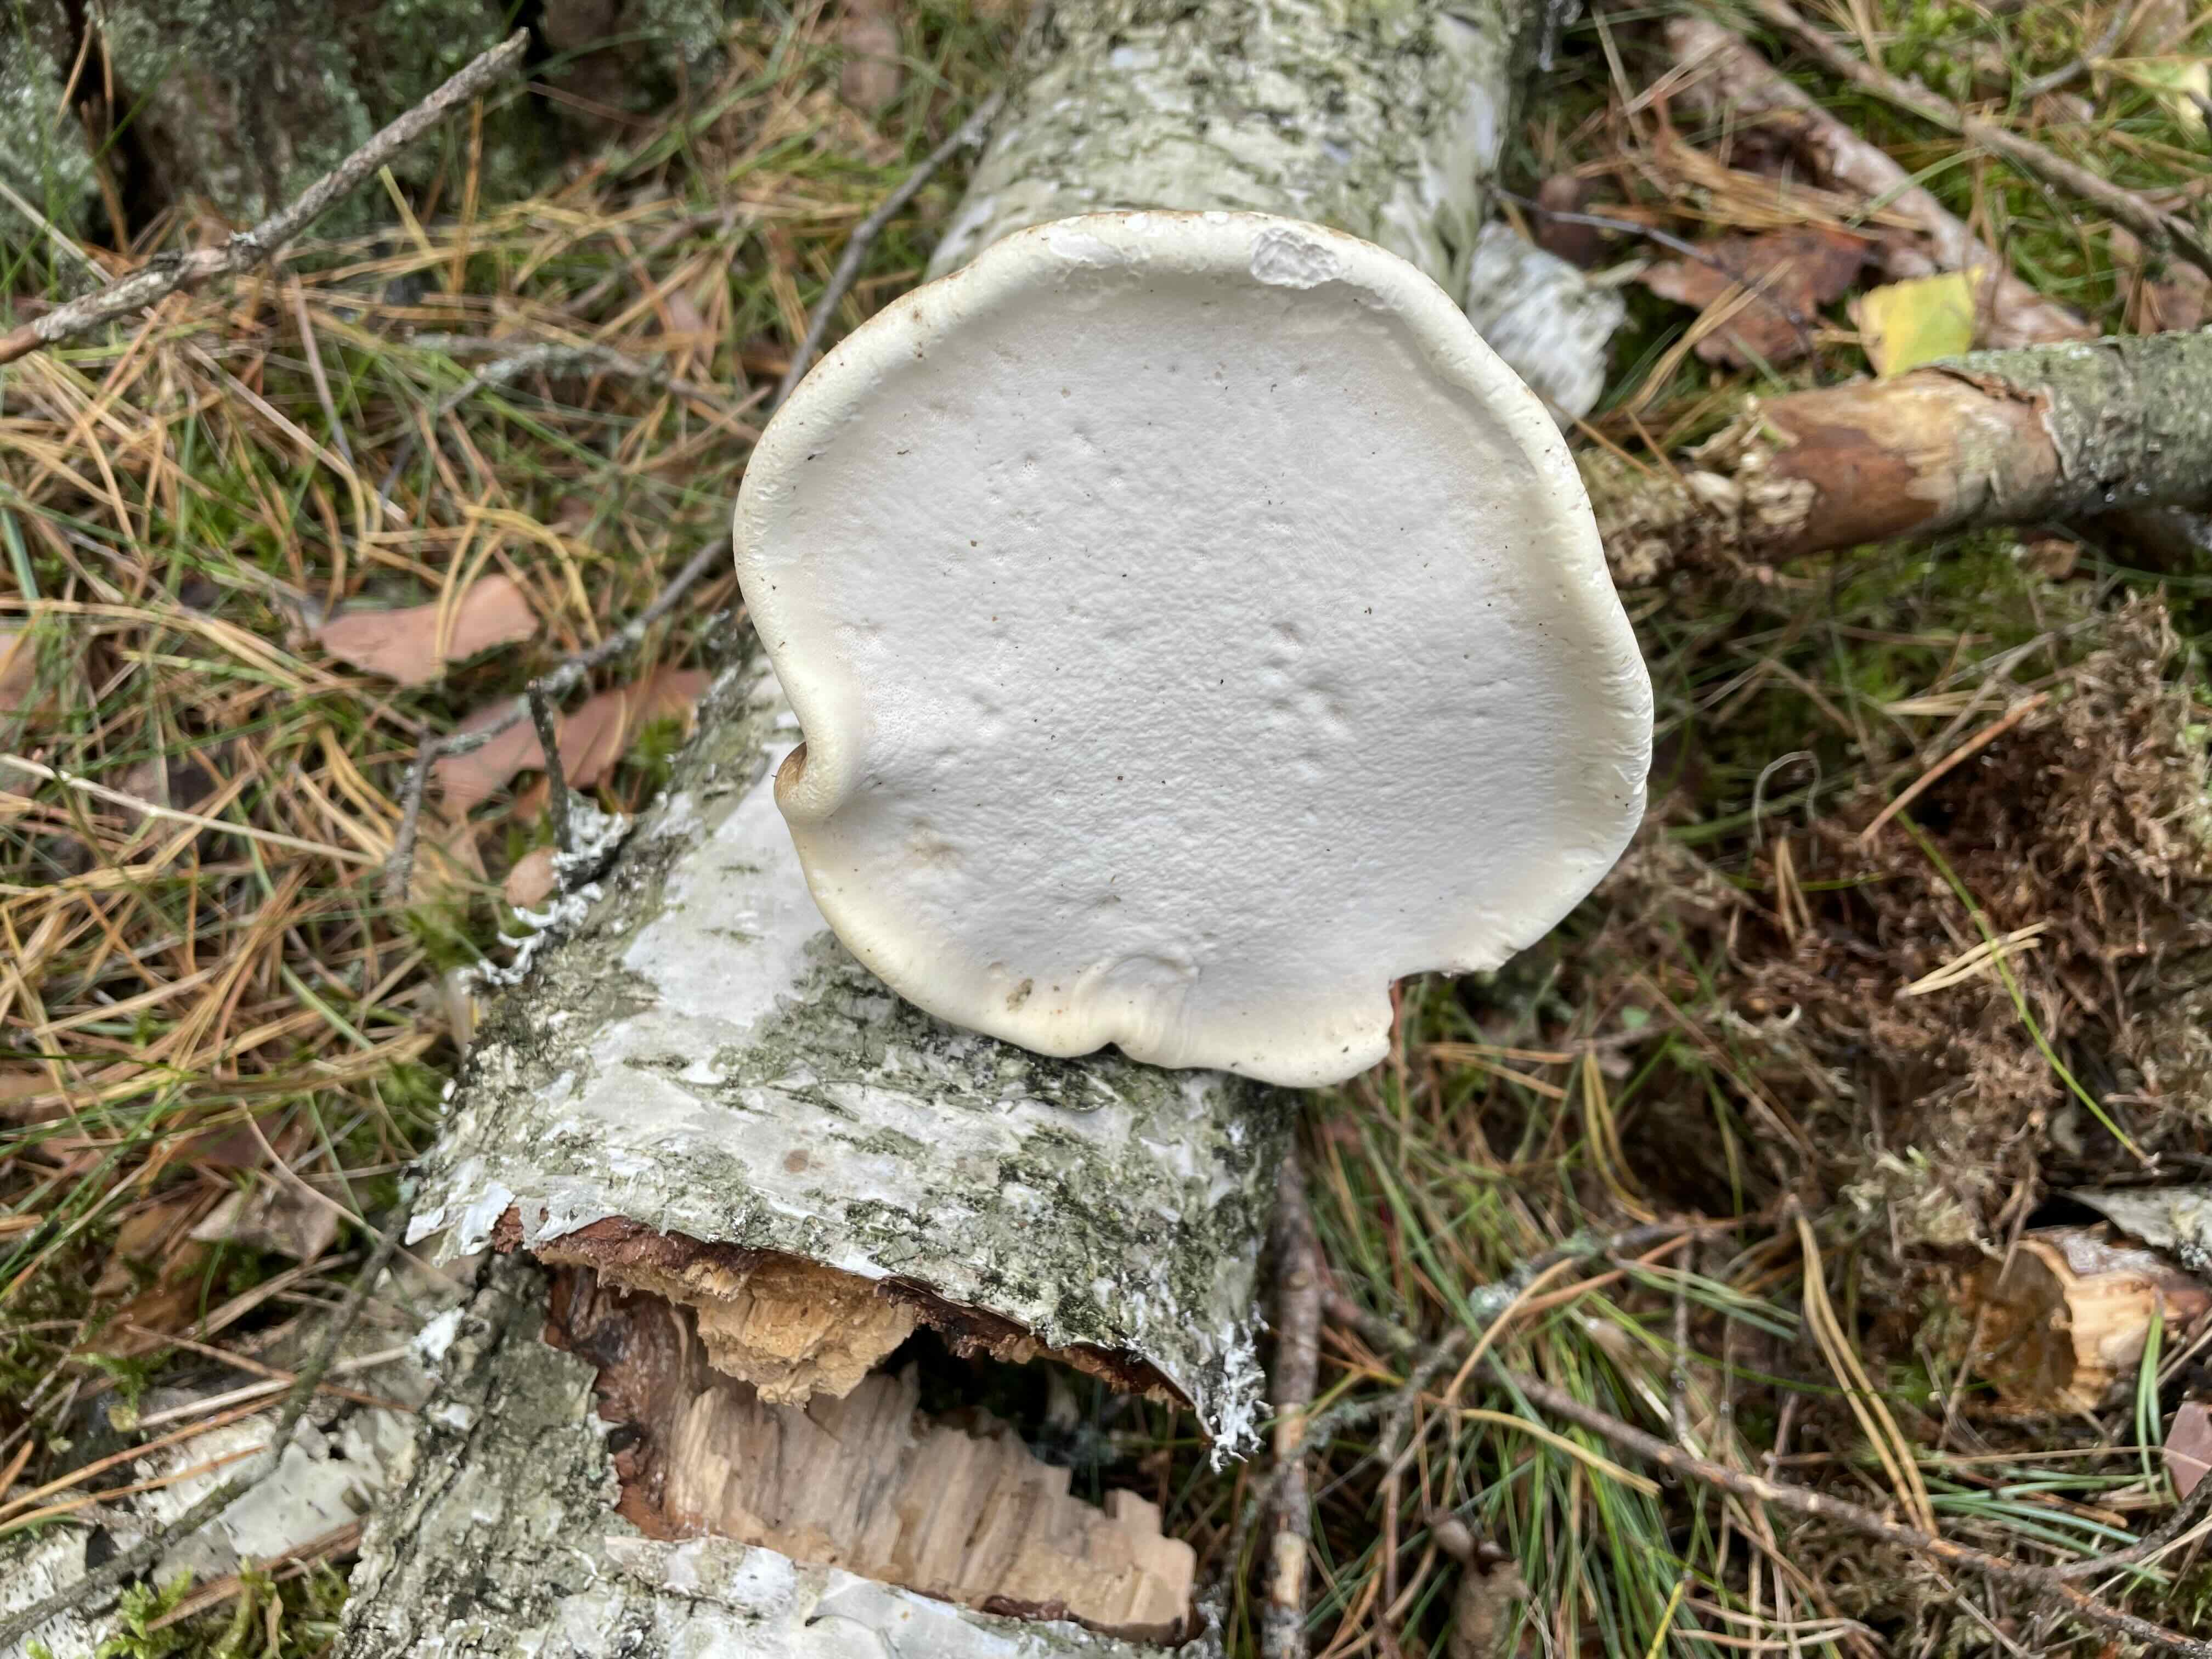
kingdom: Fungi
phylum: Basidiomycota
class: Agaricomycetes
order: Polyporales
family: Fomitopsidaceae
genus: Fomitopsis
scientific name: Fomitopsis betulina
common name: birkeporesvamp
